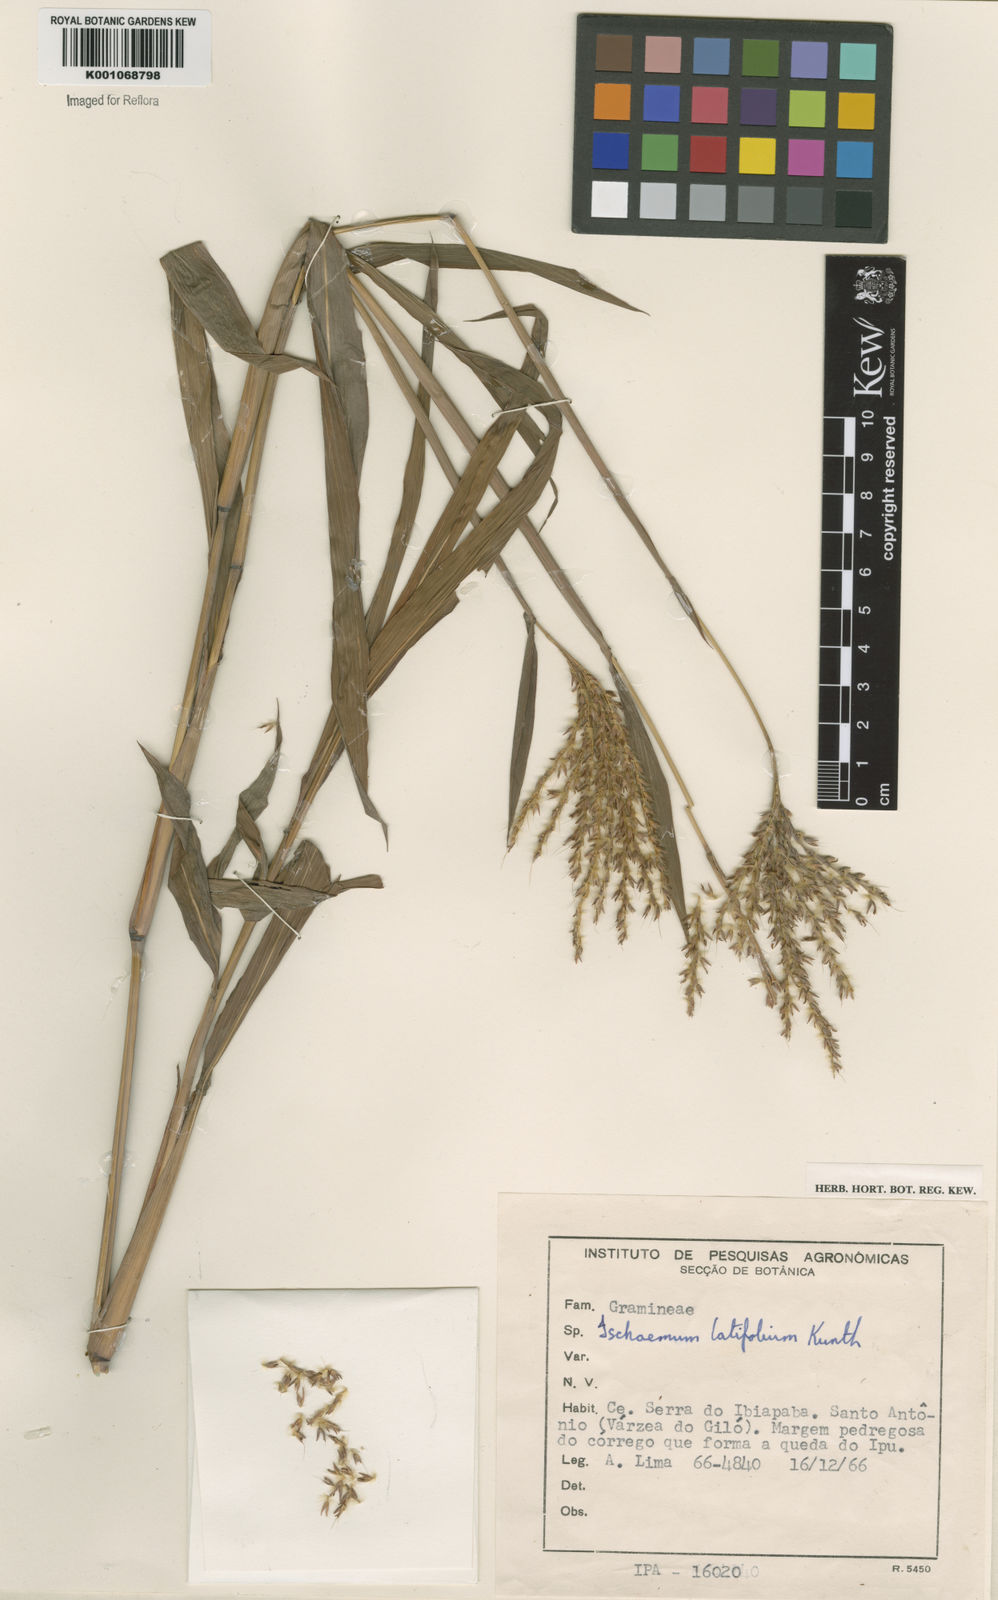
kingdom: Plantae
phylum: Tracheophyta
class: Liliopsida
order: Poales
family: Poaceae
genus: Ischaemum
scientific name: Ischaemum latifolium
